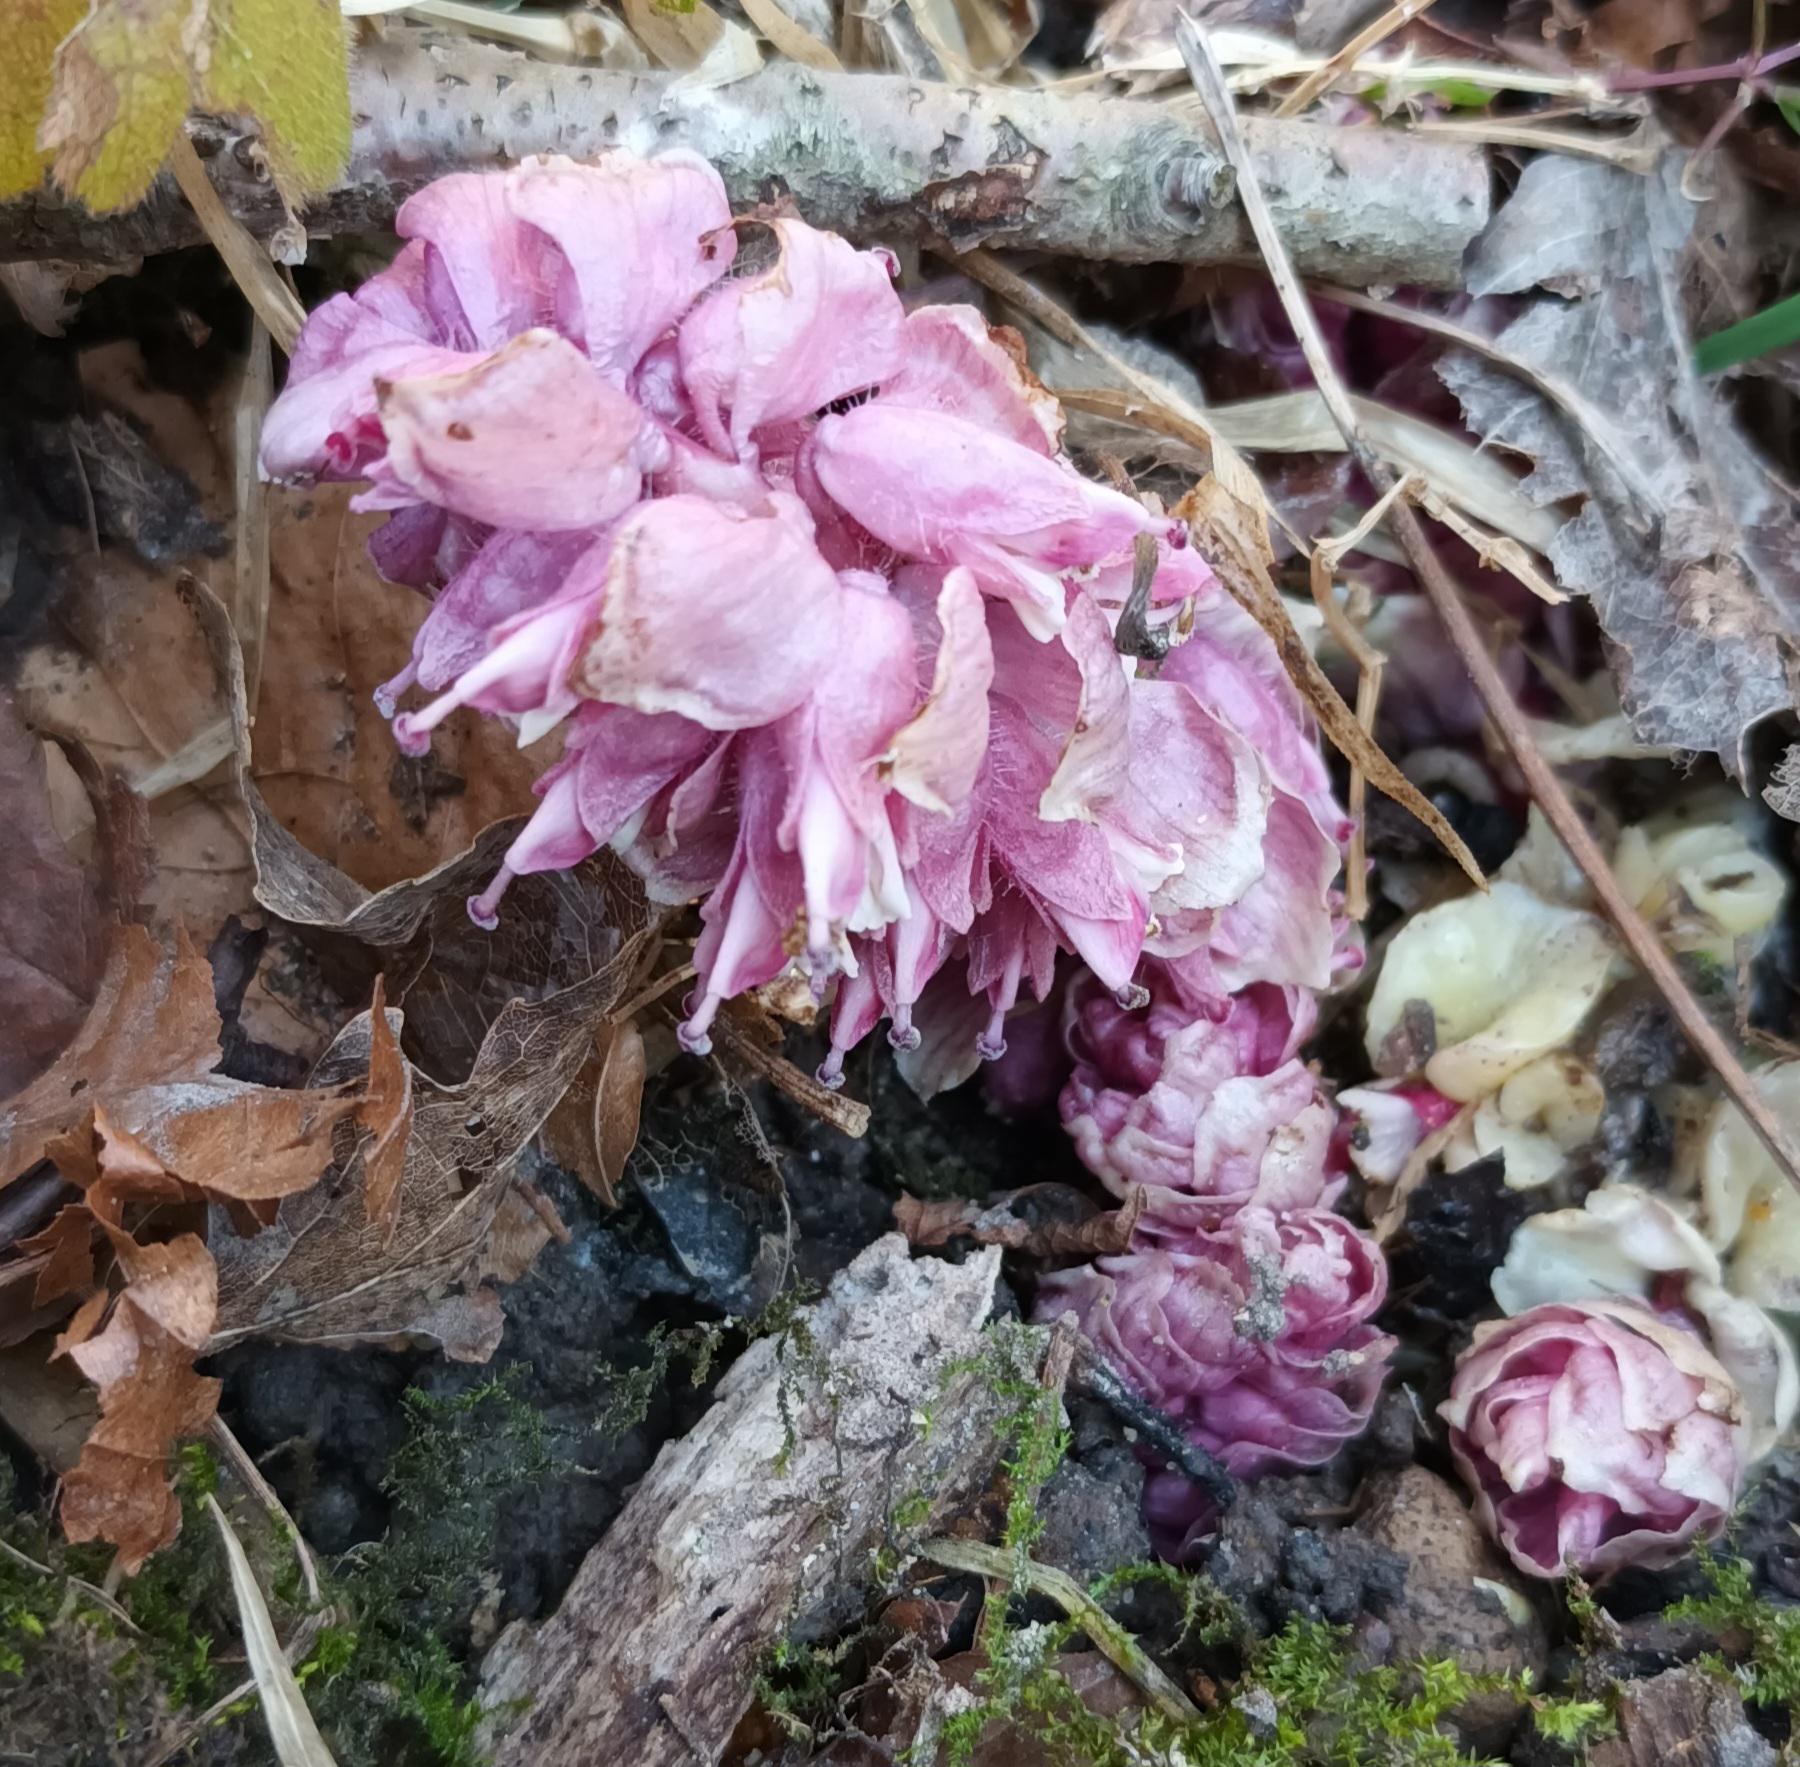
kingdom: Plantae
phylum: Tracheophyta
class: Magnoliopsida
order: Lamiales
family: Orobanchaceae
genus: Lathraea
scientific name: Lathraea squamaria
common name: Skælrod
